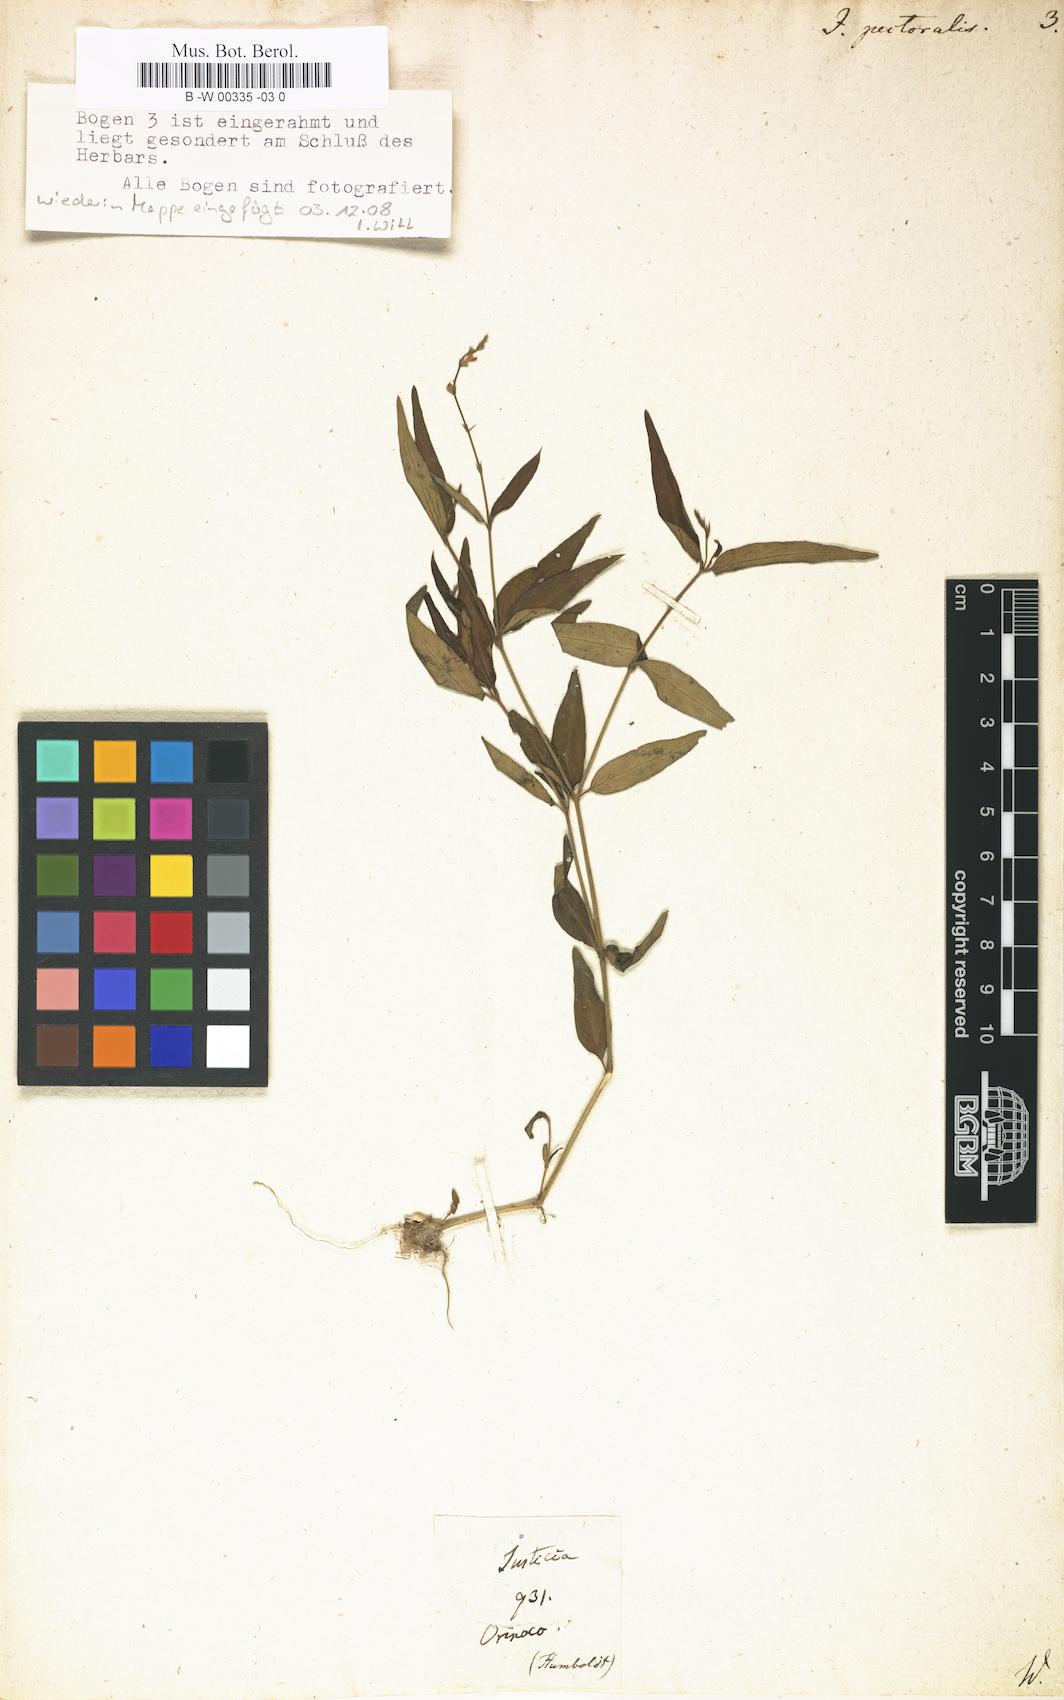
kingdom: Plantae
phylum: Tracheophyta
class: Magnoliopsida
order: Lamiales
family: Acanthaceae
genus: Dianthera
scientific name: Dianthera pectoralis
